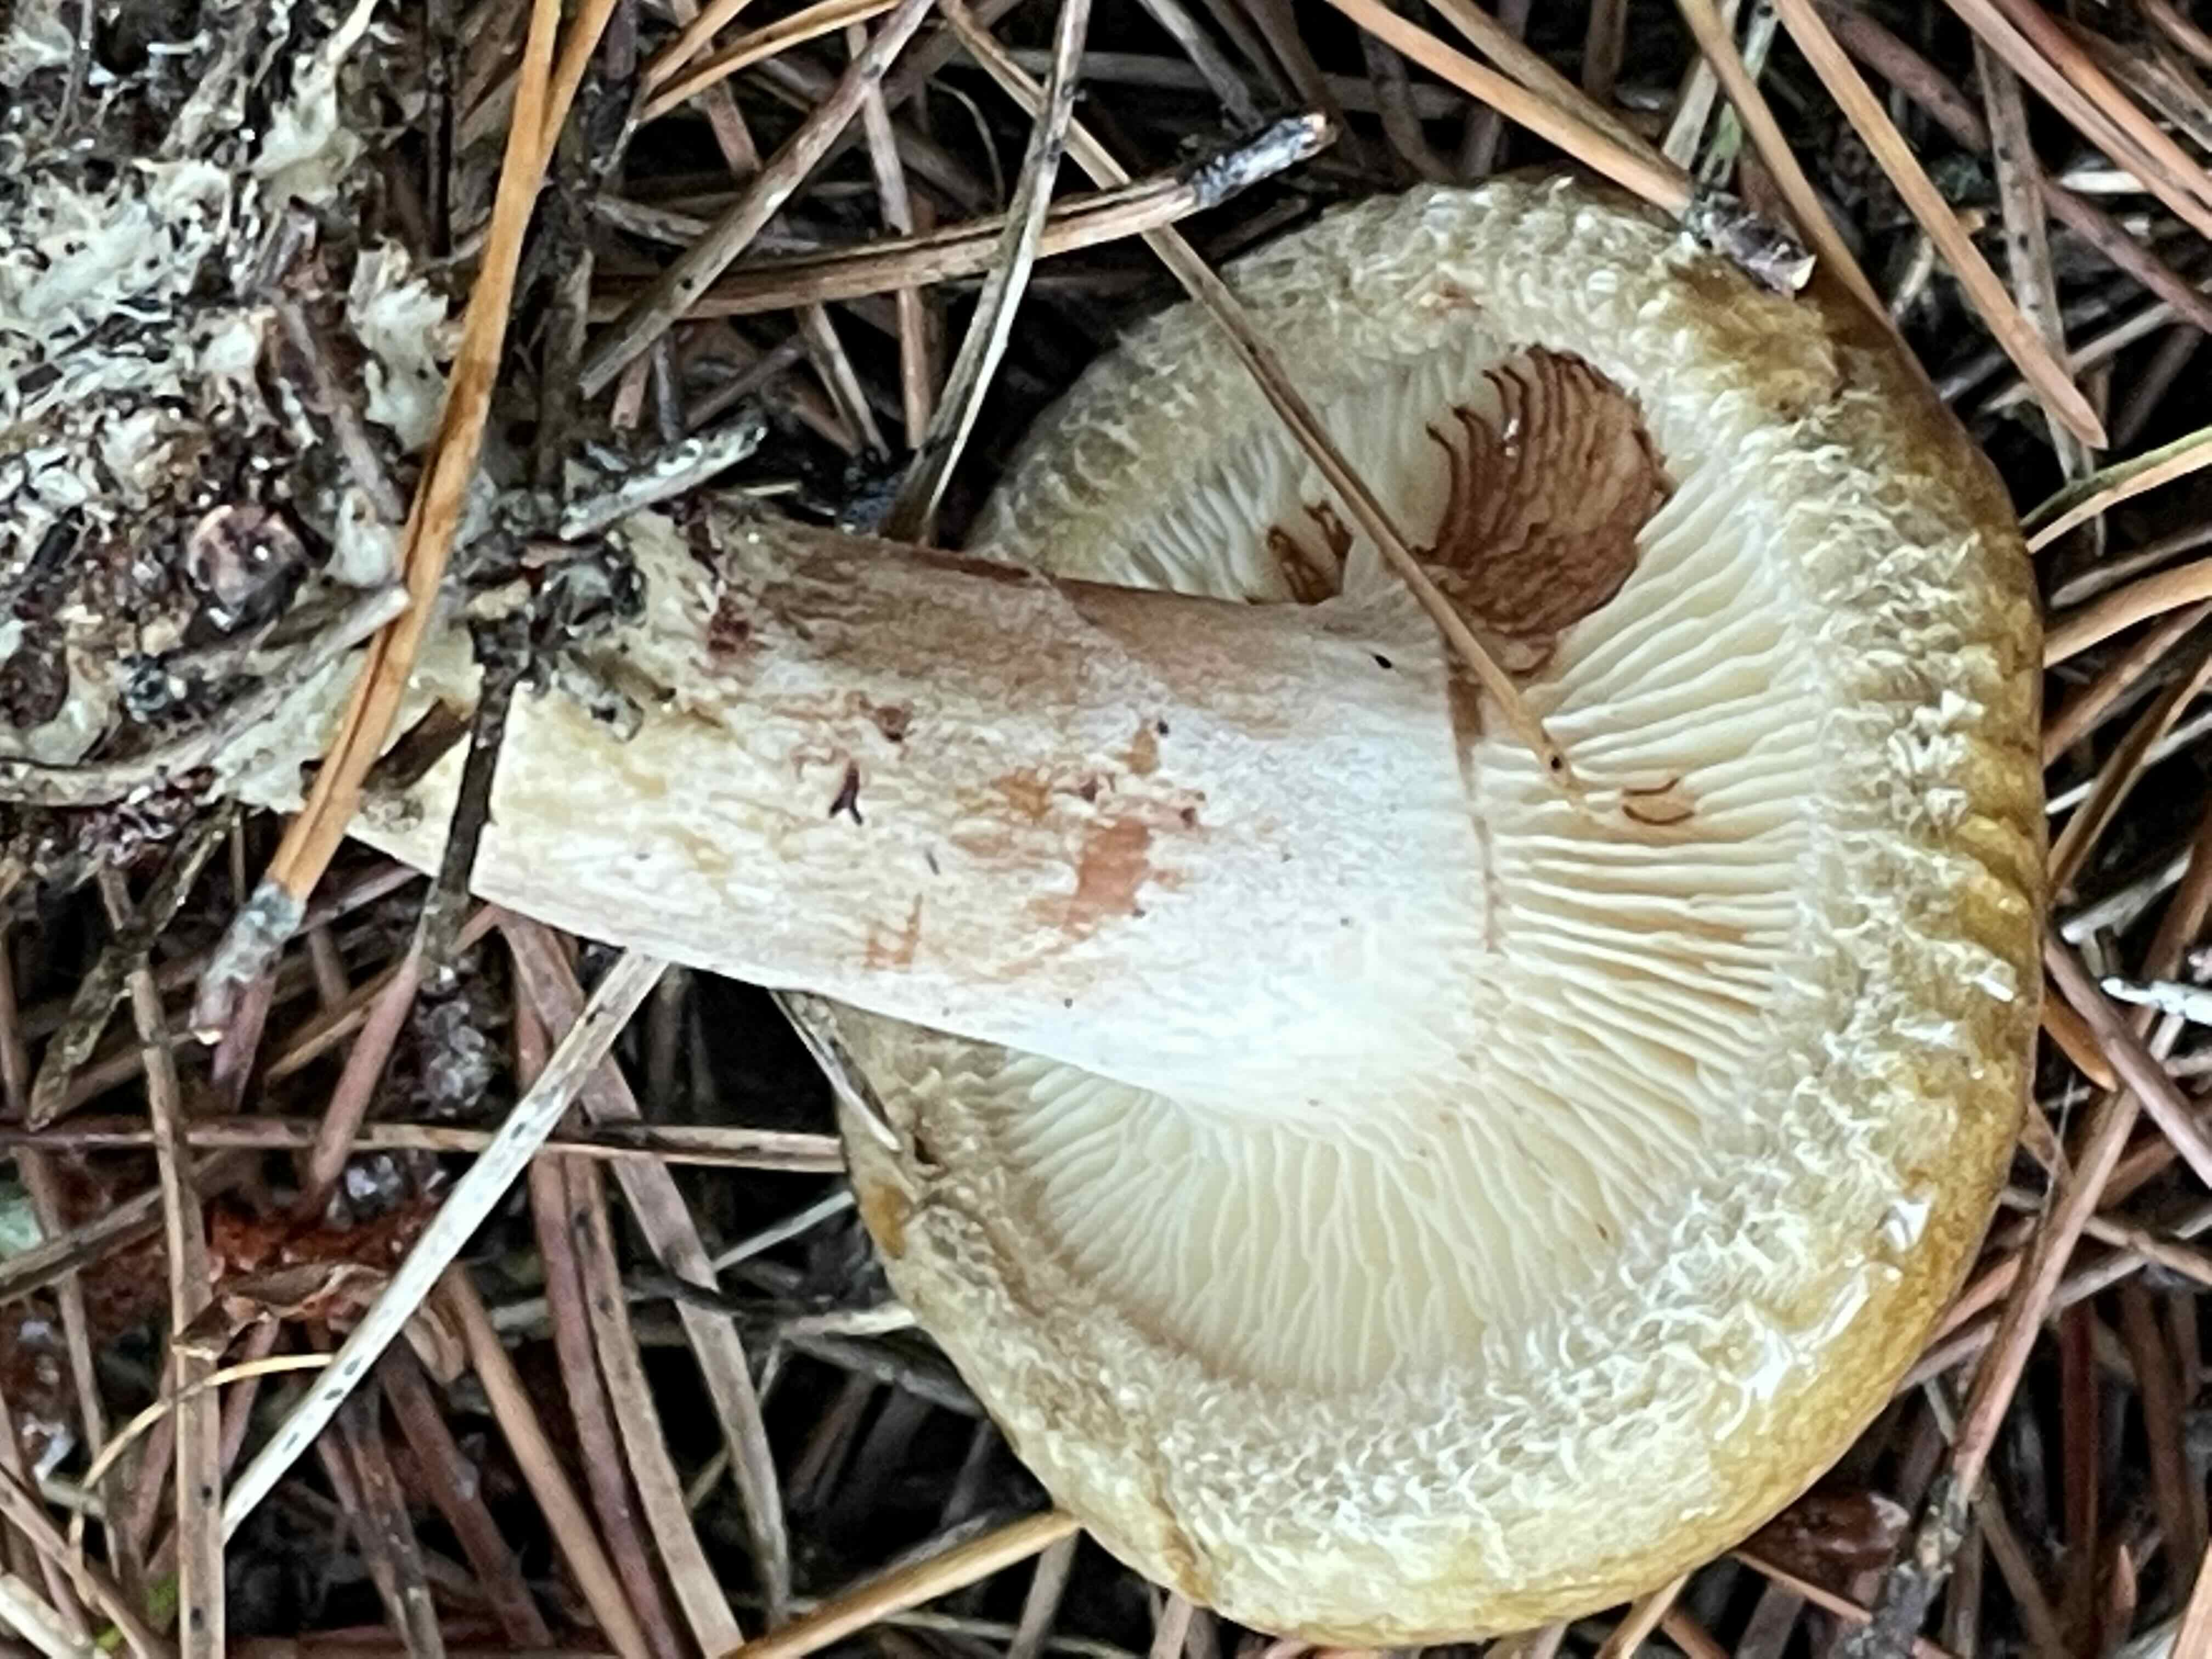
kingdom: Fungi
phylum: Basidiomycota
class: Agaricomycetes
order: Boletales
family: Paxillaceae
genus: Paxillus
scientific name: Paxillus involutus
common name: almindelig netbladhat
